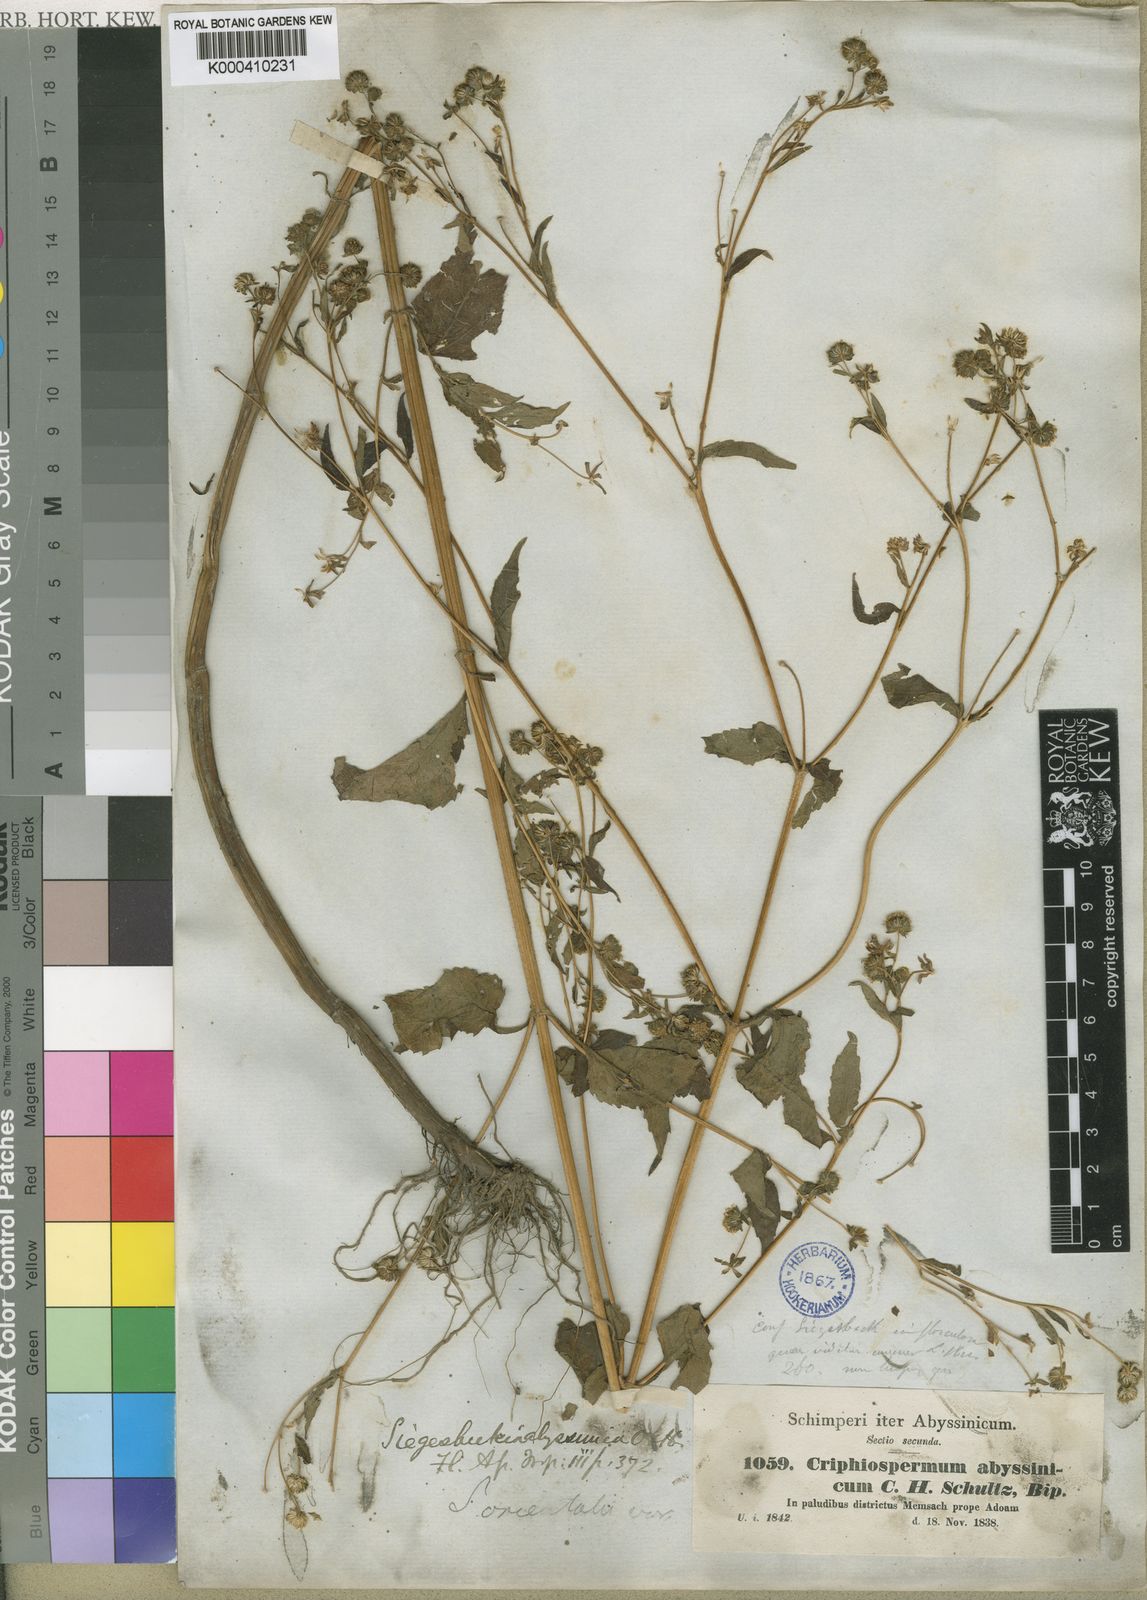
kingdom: Plantae
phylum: Tracheophyta
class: Magnoliopsida
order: Asterales
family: Asteraceae
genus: Micractis
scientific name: Micractis bojeri
